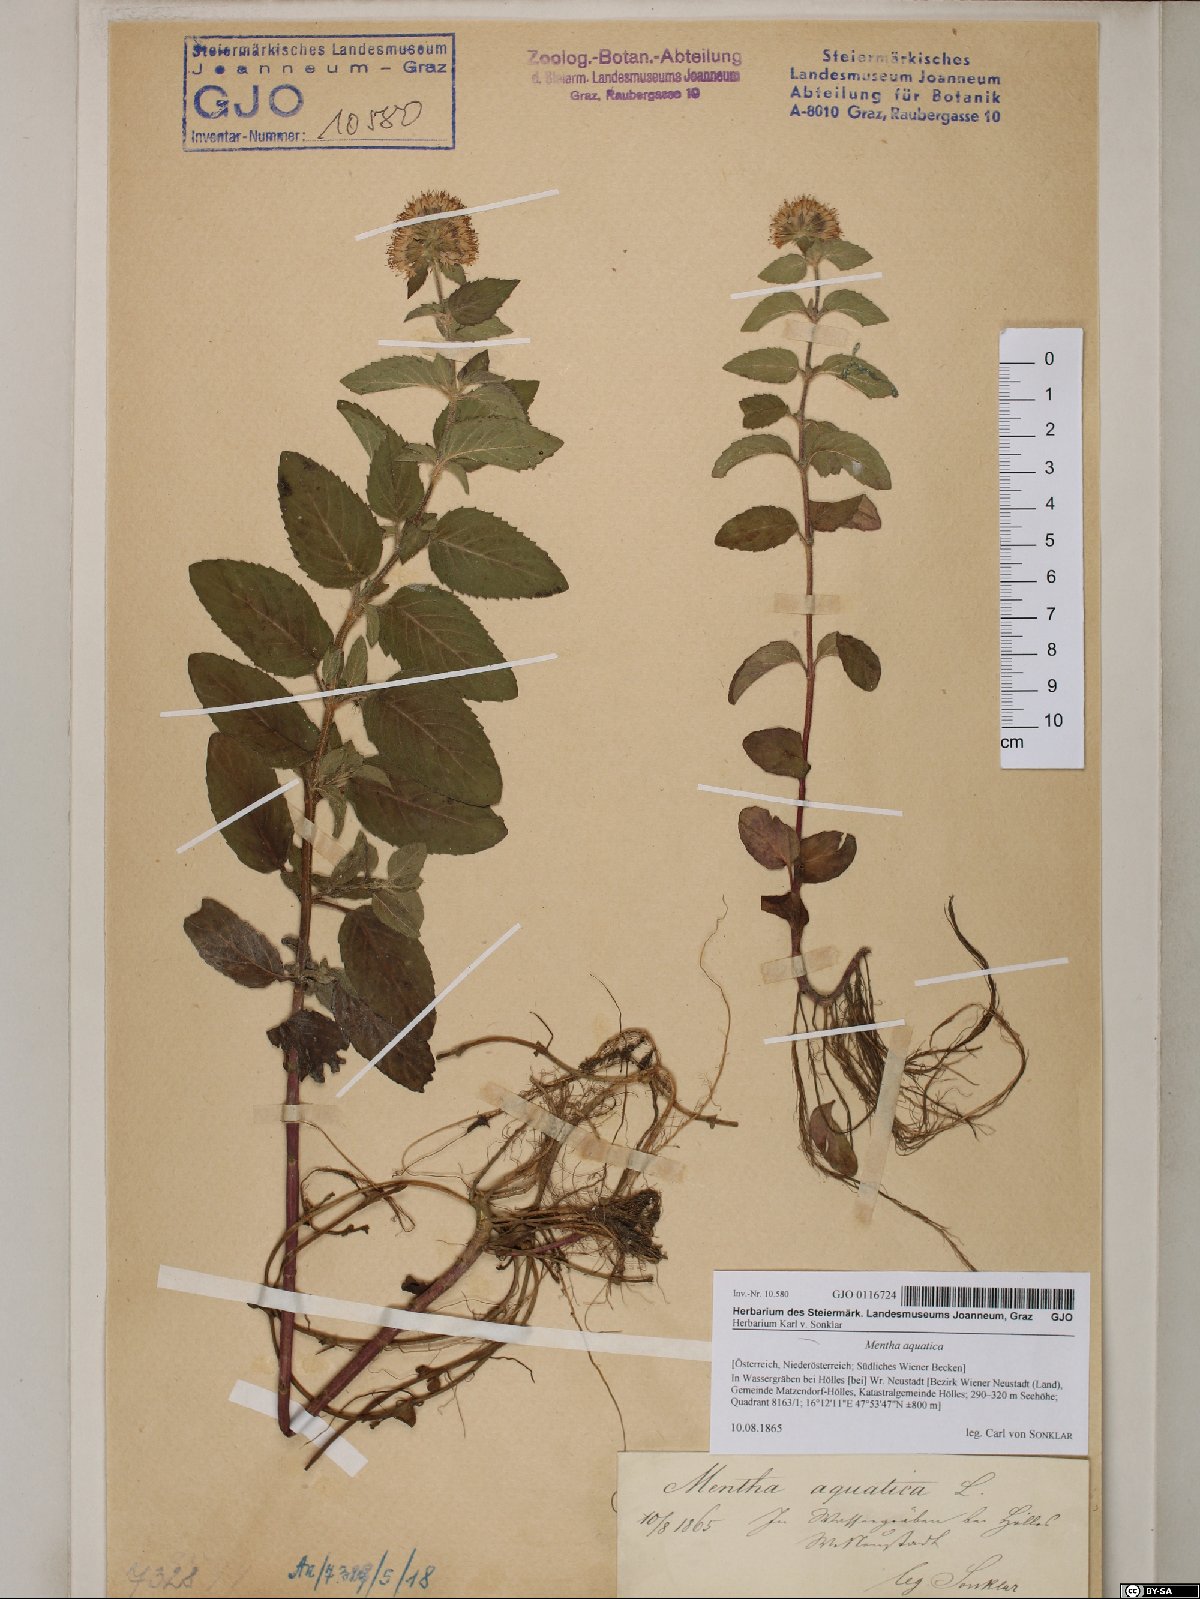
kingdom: Plantae
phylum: Tracheophyta
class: Magnoliopsida
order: Lamiales
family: Lamiaceae
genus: Mentha
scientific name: Mentha aquatica
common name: Water mint
